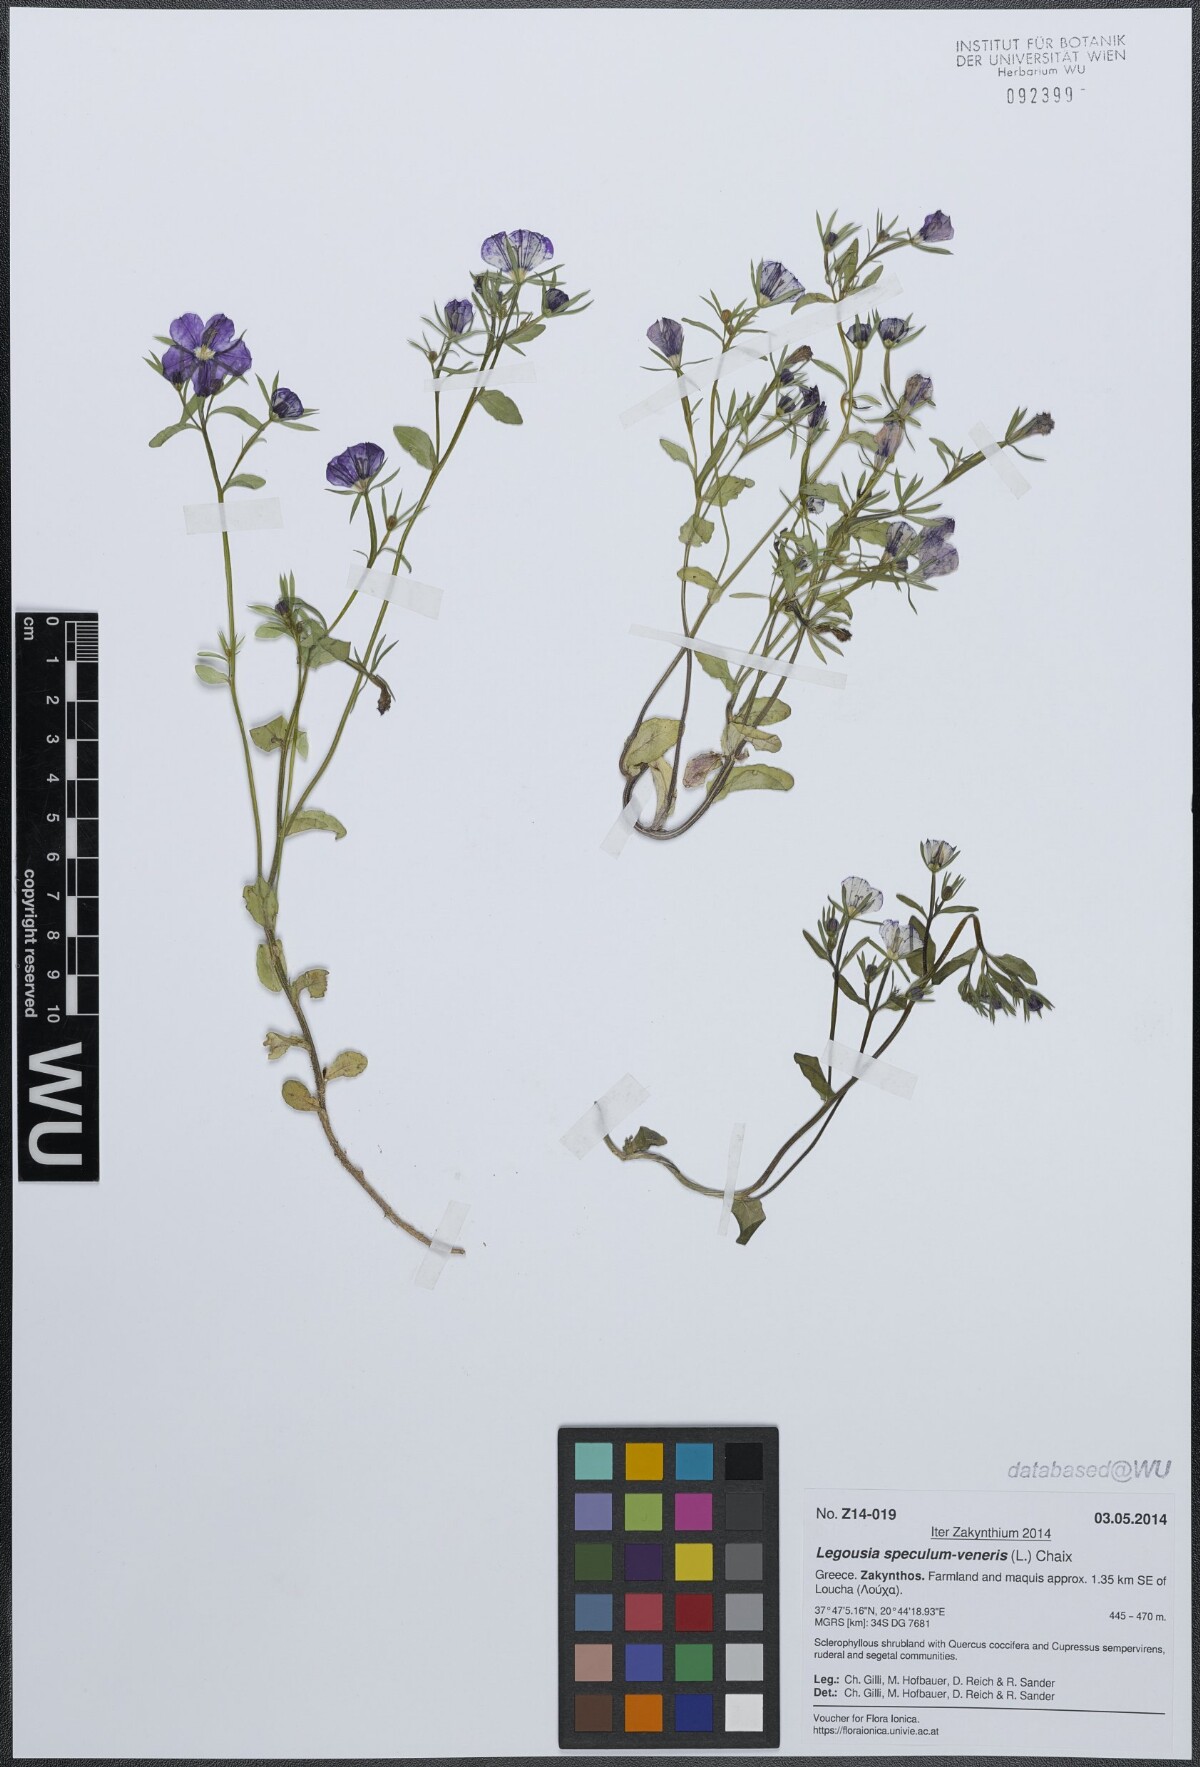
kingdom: Plantae
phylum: Tracheophyta
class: Magnoliopsida
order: Asterales
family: Campanulaceae
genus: Legousia
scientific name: Legousia speculum-veneris
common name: Large venus's-looking-glass
